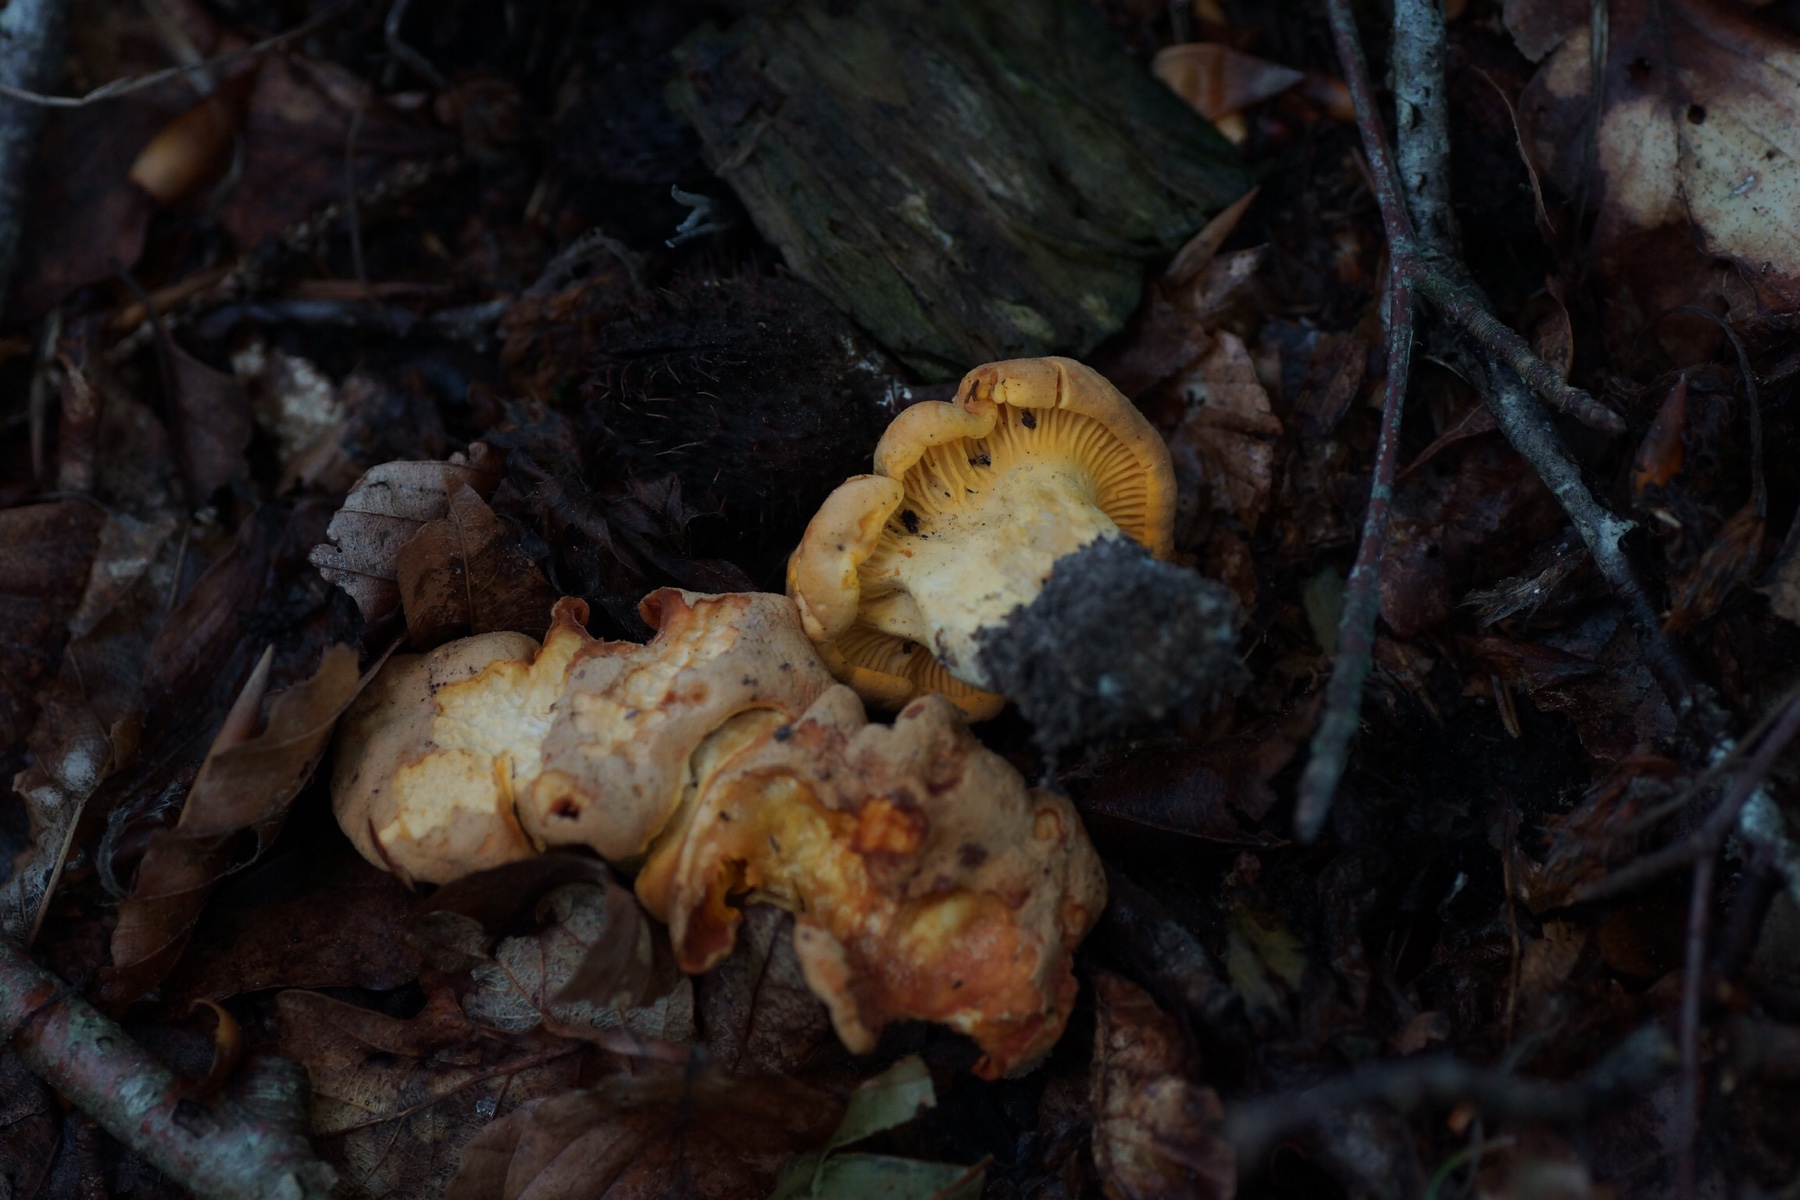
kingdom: Fungi
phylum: Basidiomycota
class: Agaricomycetes
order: Cantharellales
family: Hydnaceae
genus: Cantharellus
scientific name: Cantharellus cibarius
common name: almindelig kantarel
